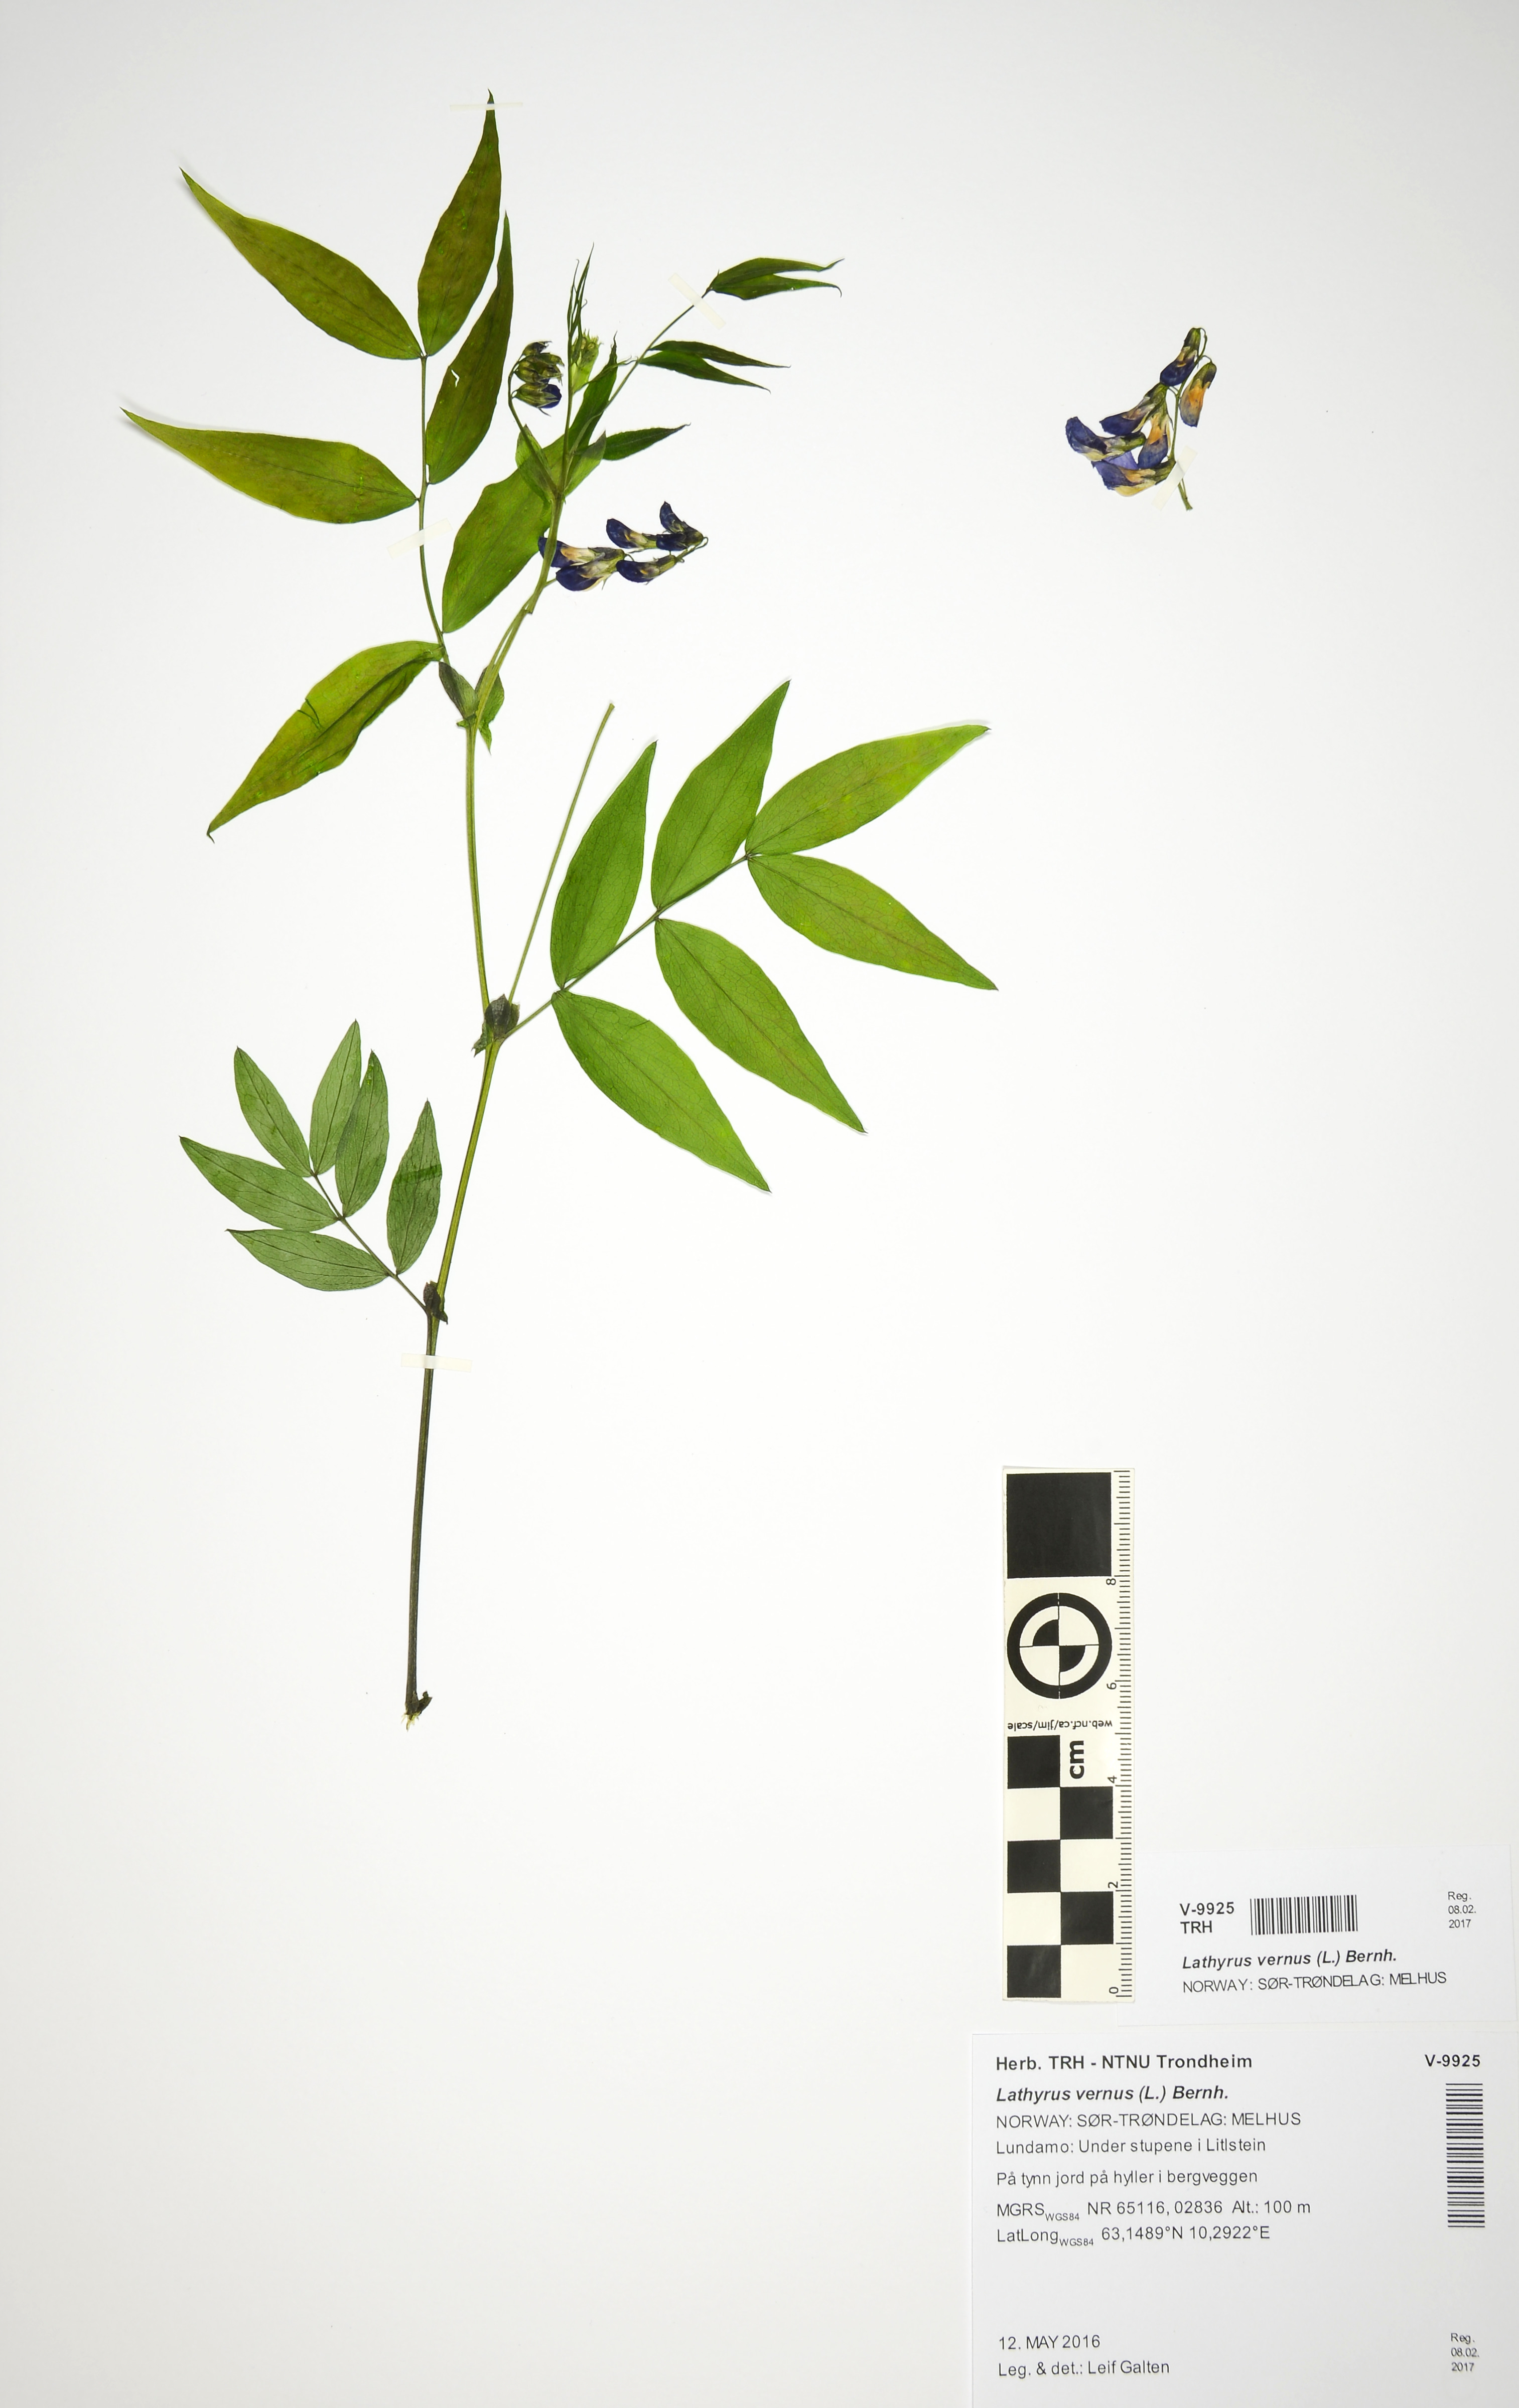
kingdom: Plantae
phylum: Tracheophyta
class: Magnoliopsida
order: Fabales
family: Fabaceae
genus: Lathyrus
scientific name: Lathyrus vernus
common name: Spring pea
